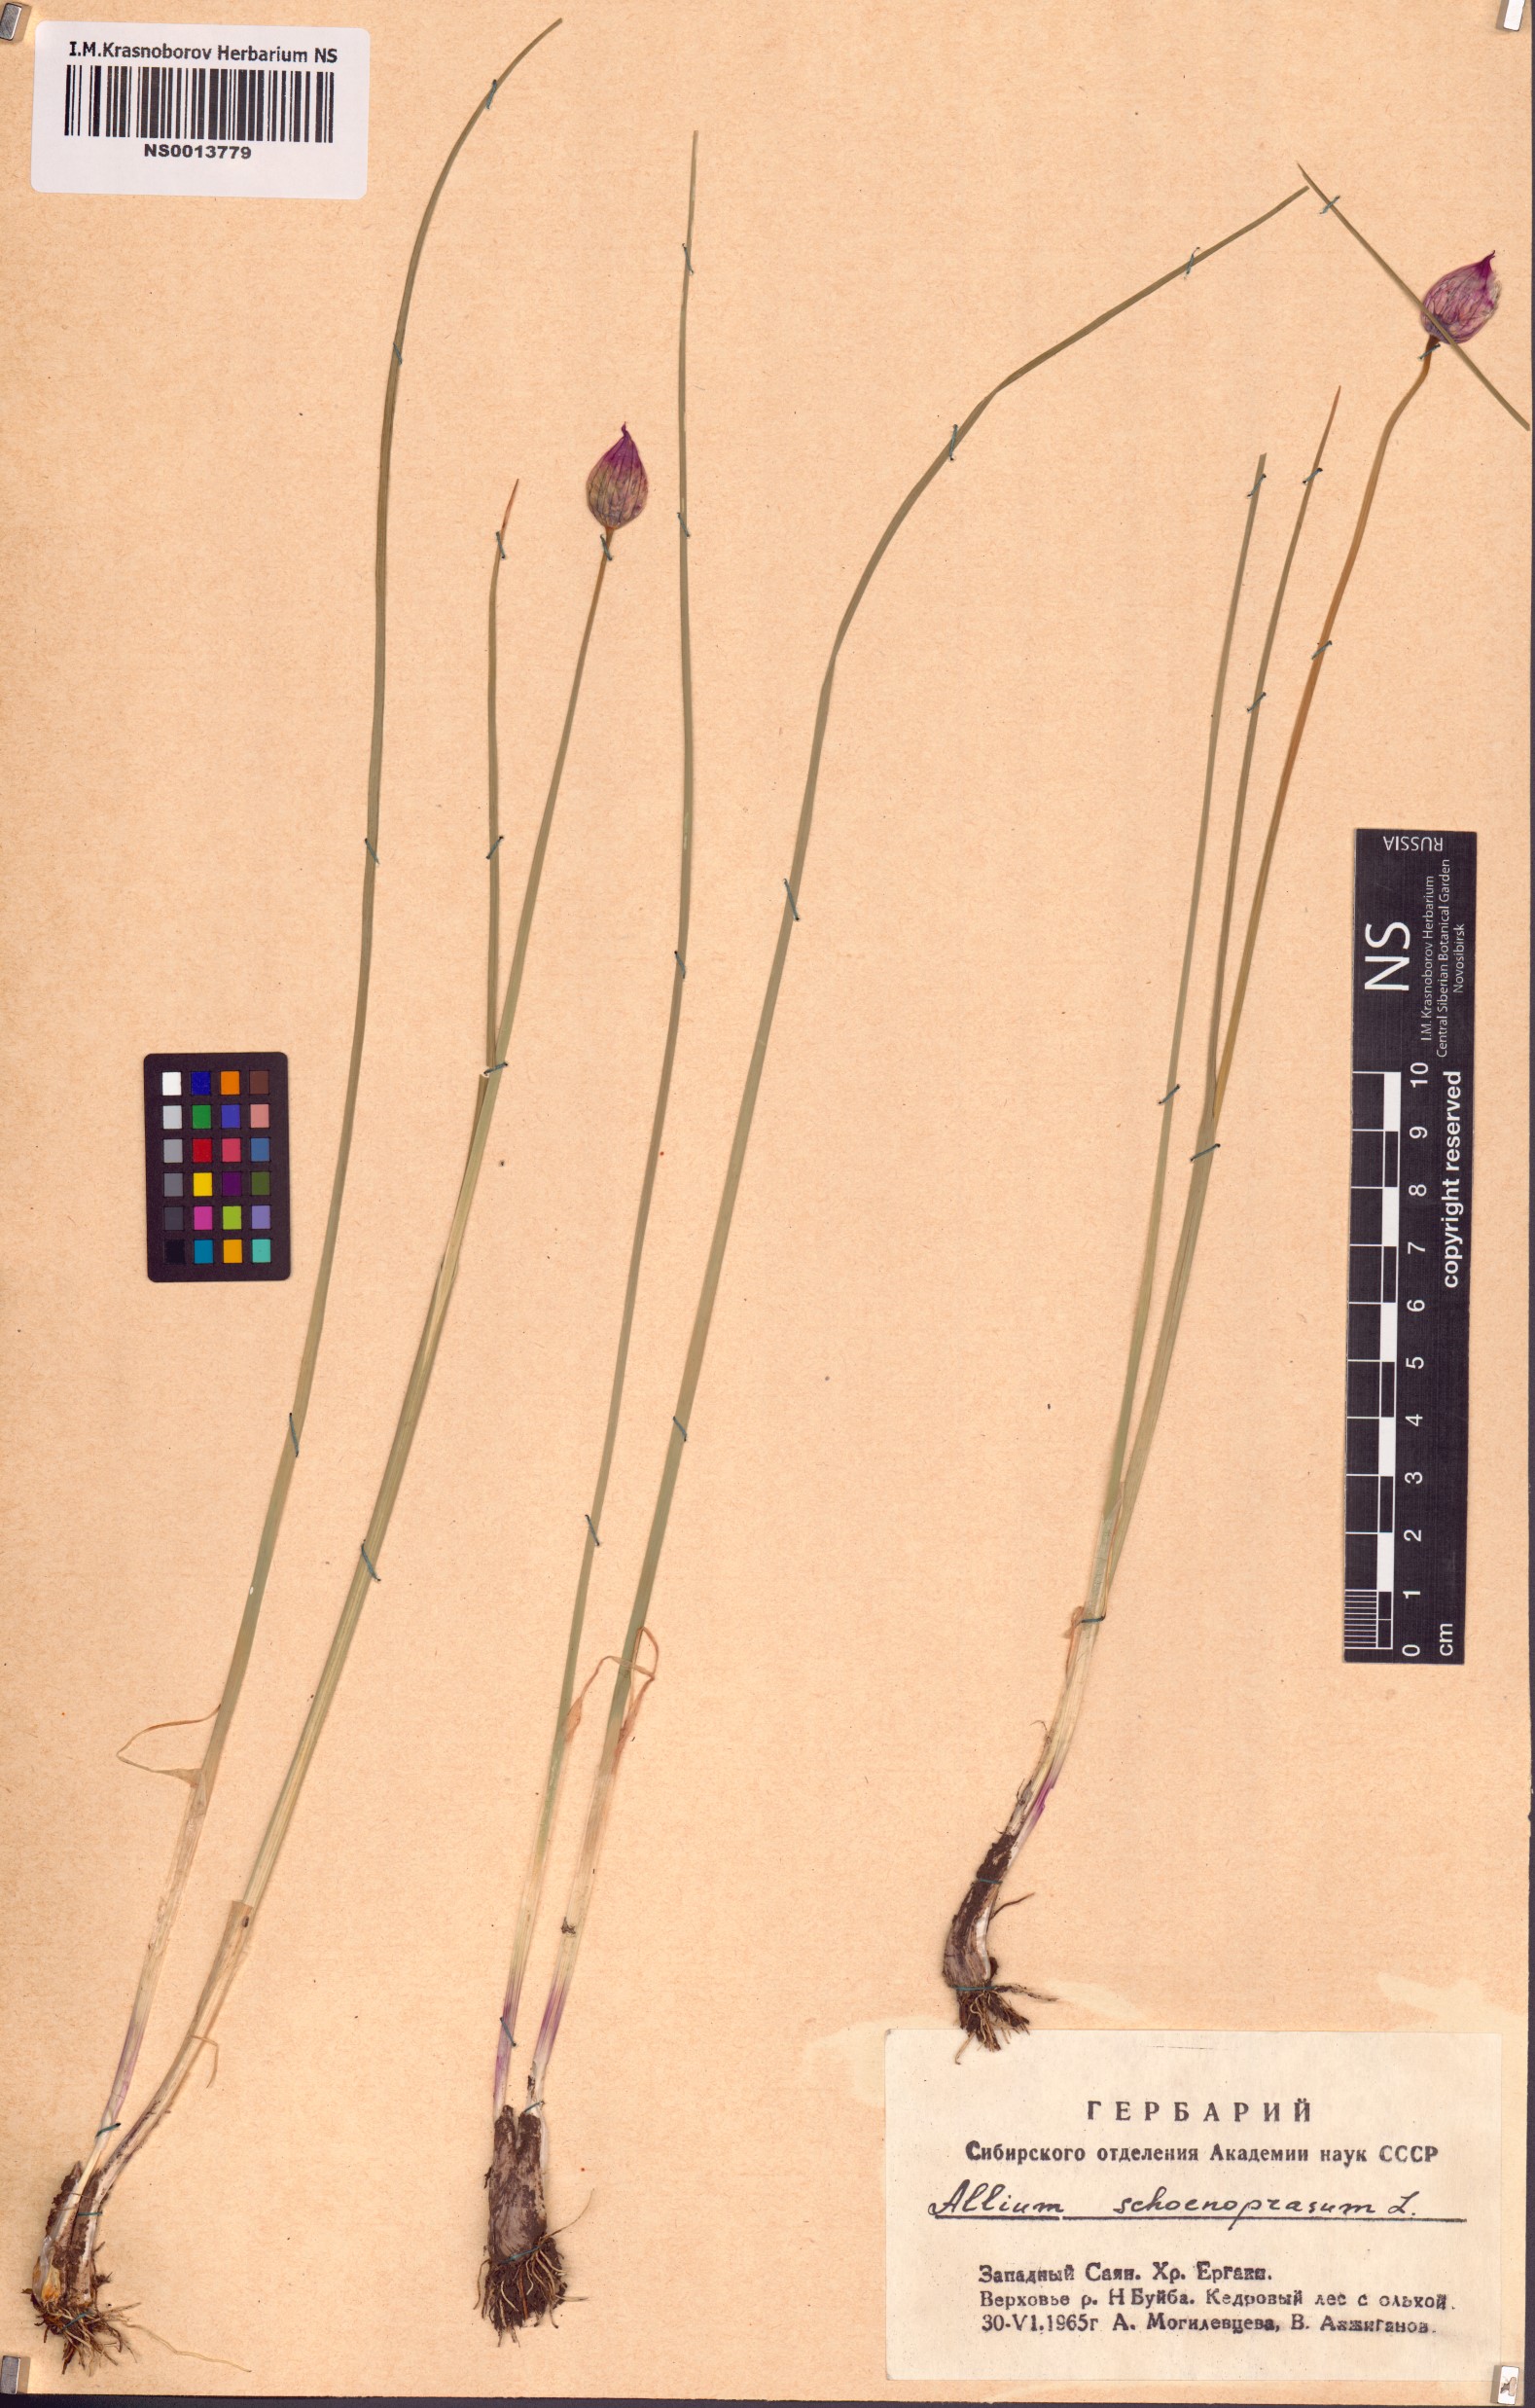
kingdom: Plantae
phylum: Tracheophyta
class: Liliopsida
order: Asparagales
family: Amaryllidaceae
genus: Allium
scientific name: Allium schoenoprasum
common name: Chives
